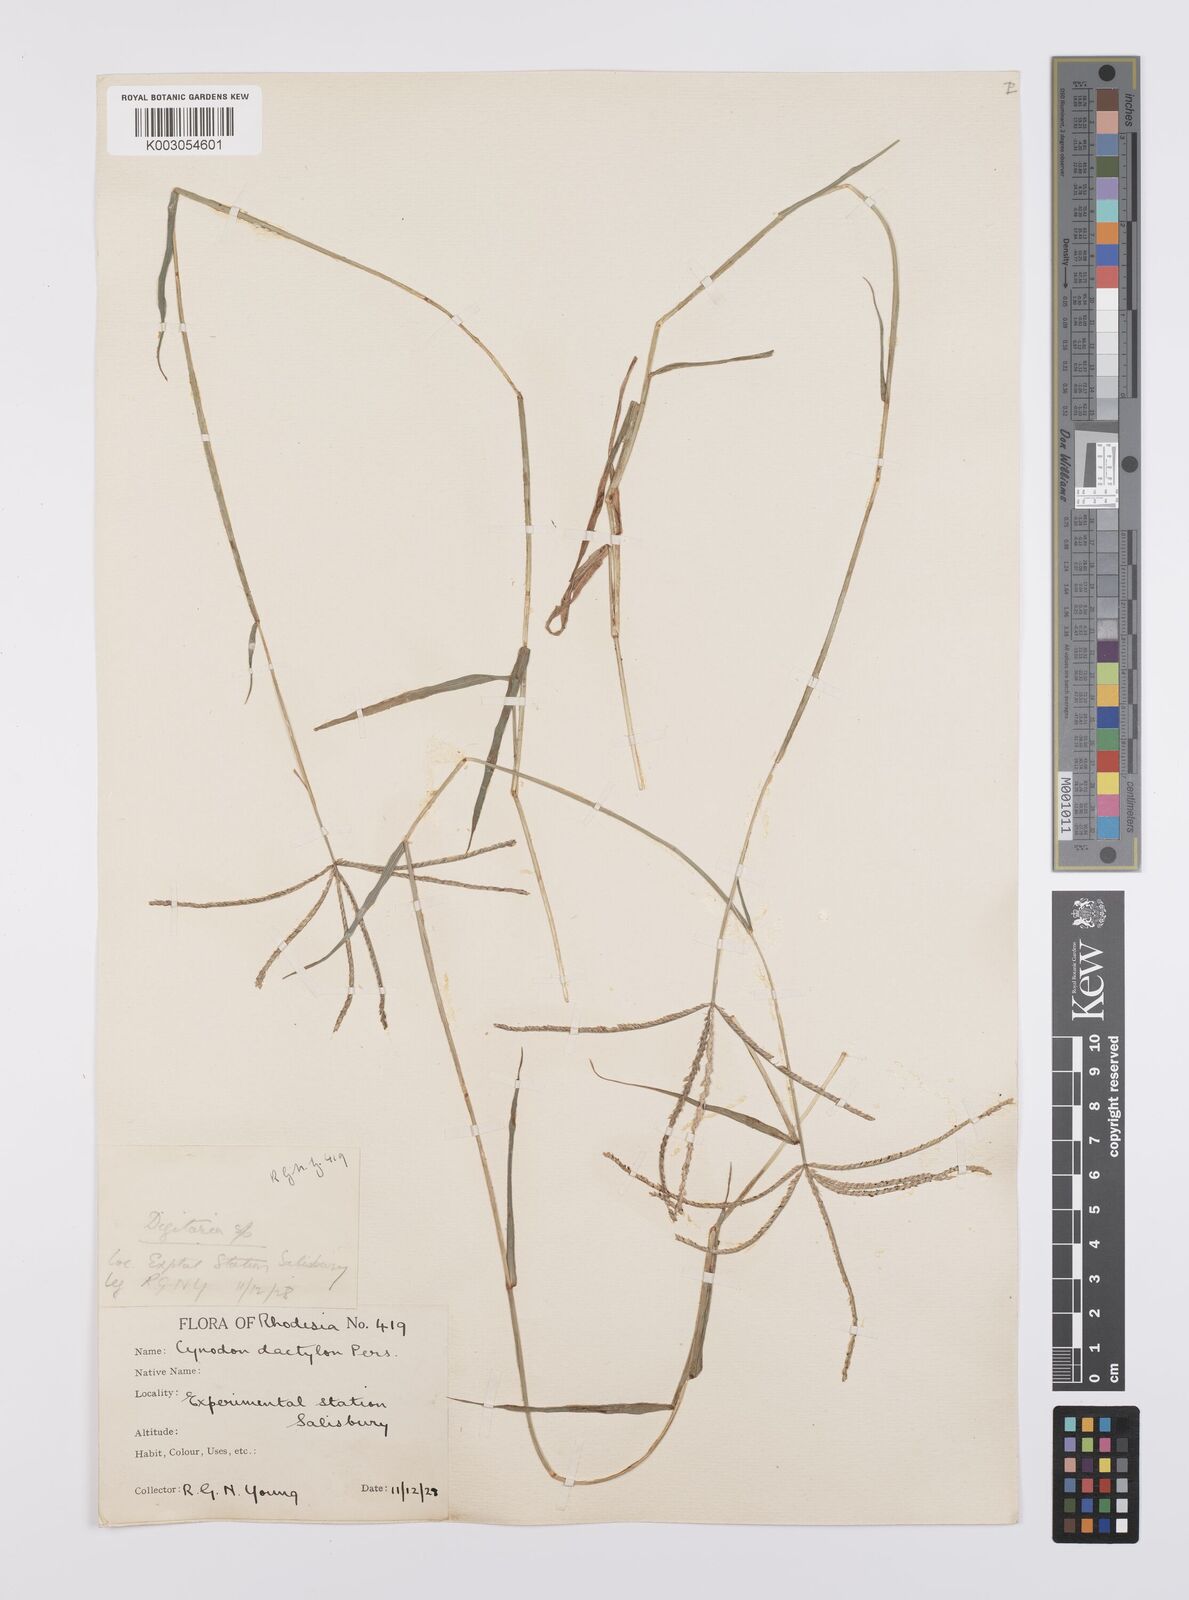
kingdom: Plantae
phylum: Tracheophyta
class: Liliopsida
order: Poales
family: Poaceae
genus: Cynodon
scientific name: Cynodon dactylon
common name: Bermuda grass
